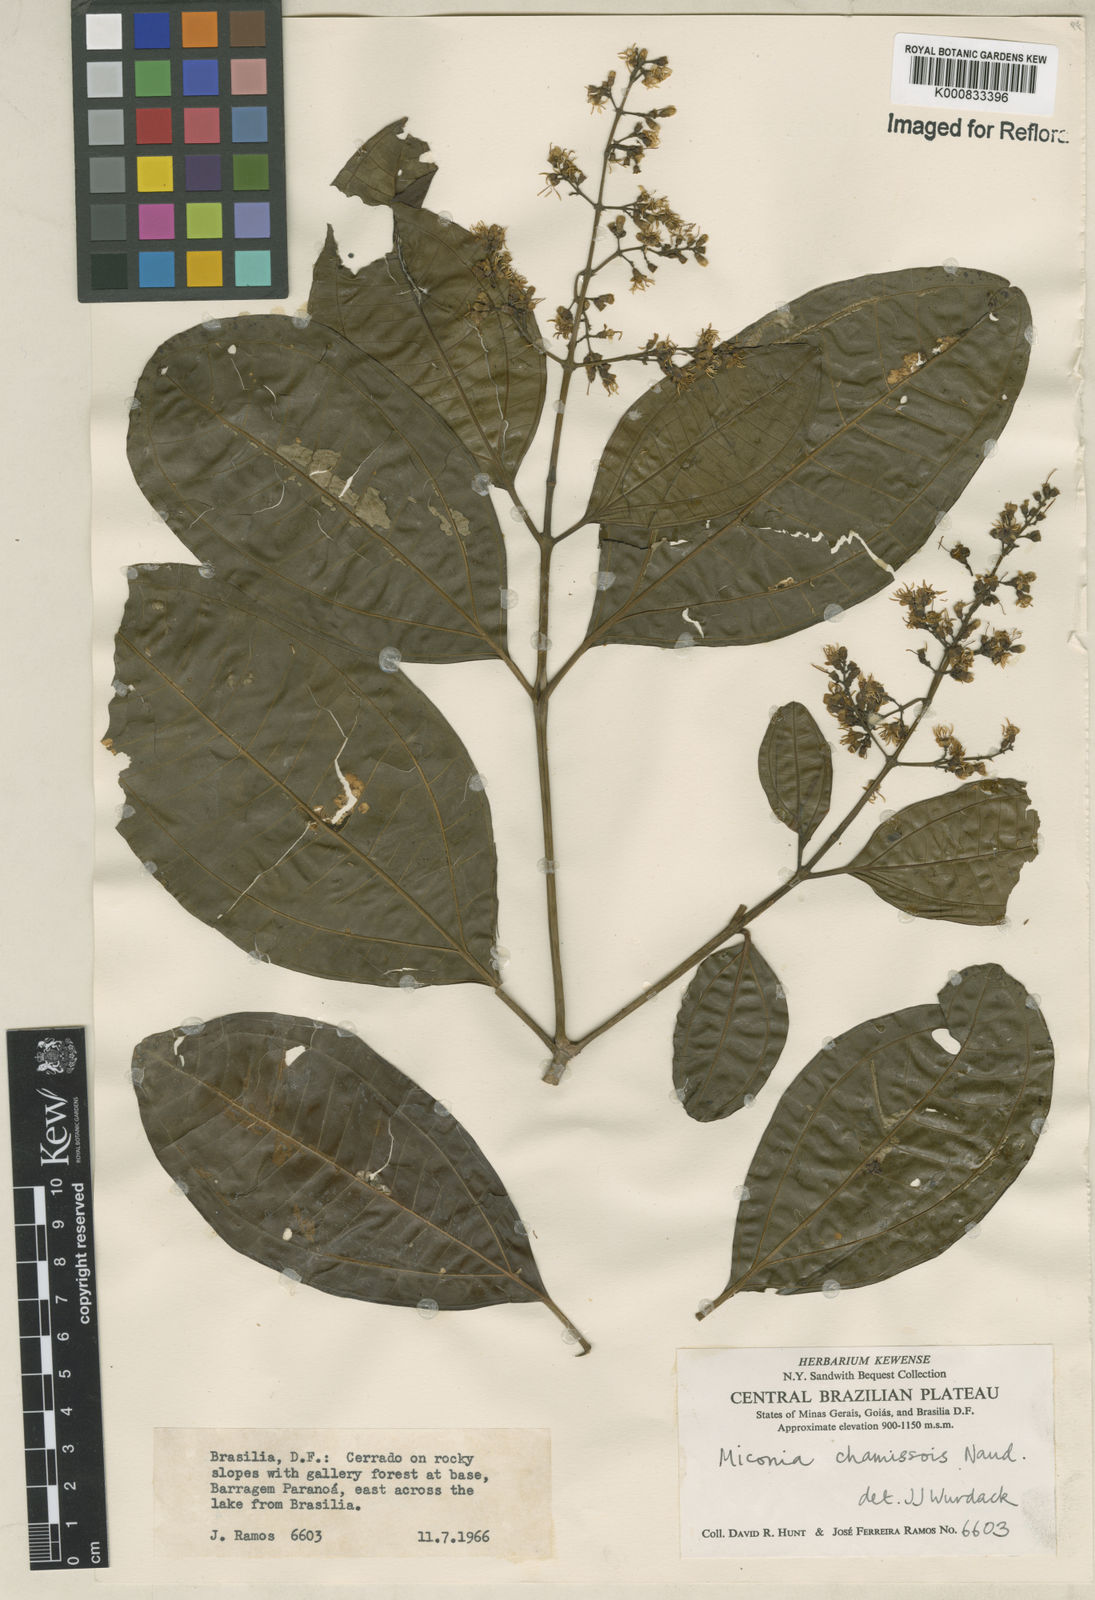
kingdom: Plantae
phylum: Tracheophyta
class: Magnoliopsida
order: Myrtales
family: Melastomataceae
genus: Miconia
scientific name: Miconia chamissois
